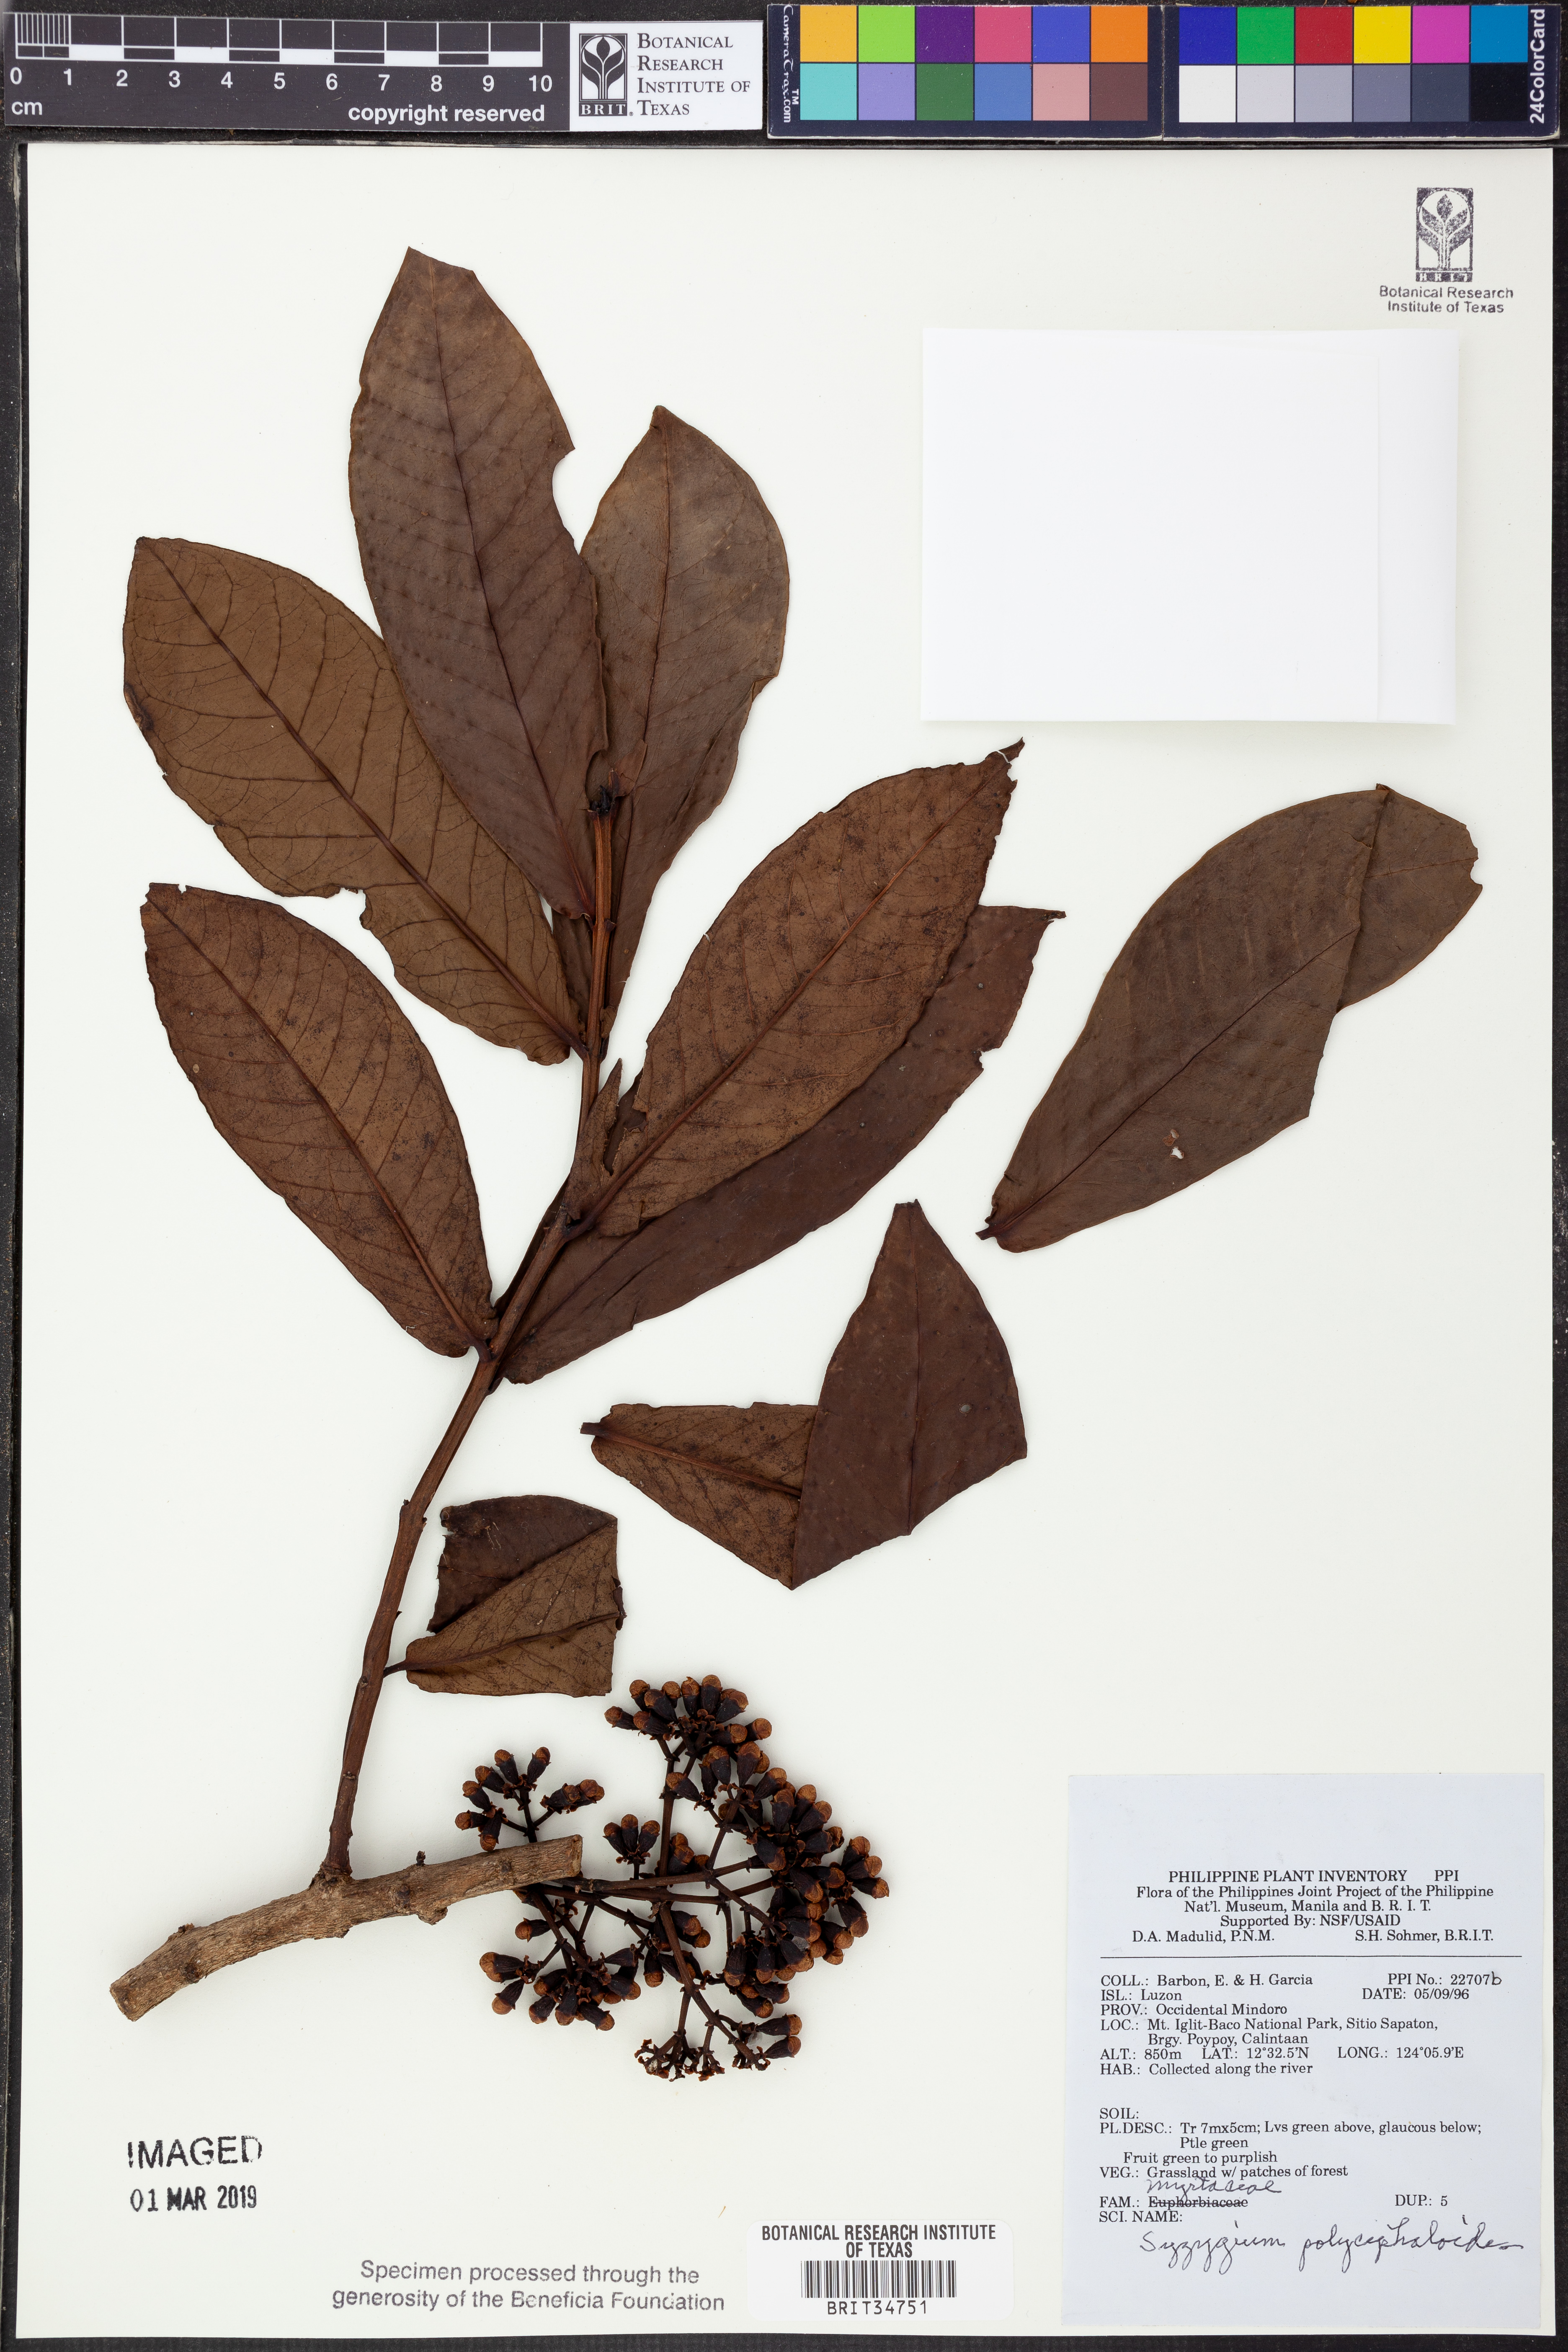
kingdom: Plantae
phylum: Tracheophyta
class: Magnoliopsida
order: Myrtales
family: Myrtaceae
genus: Syzygium
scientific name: Syzygium polycephaloides
